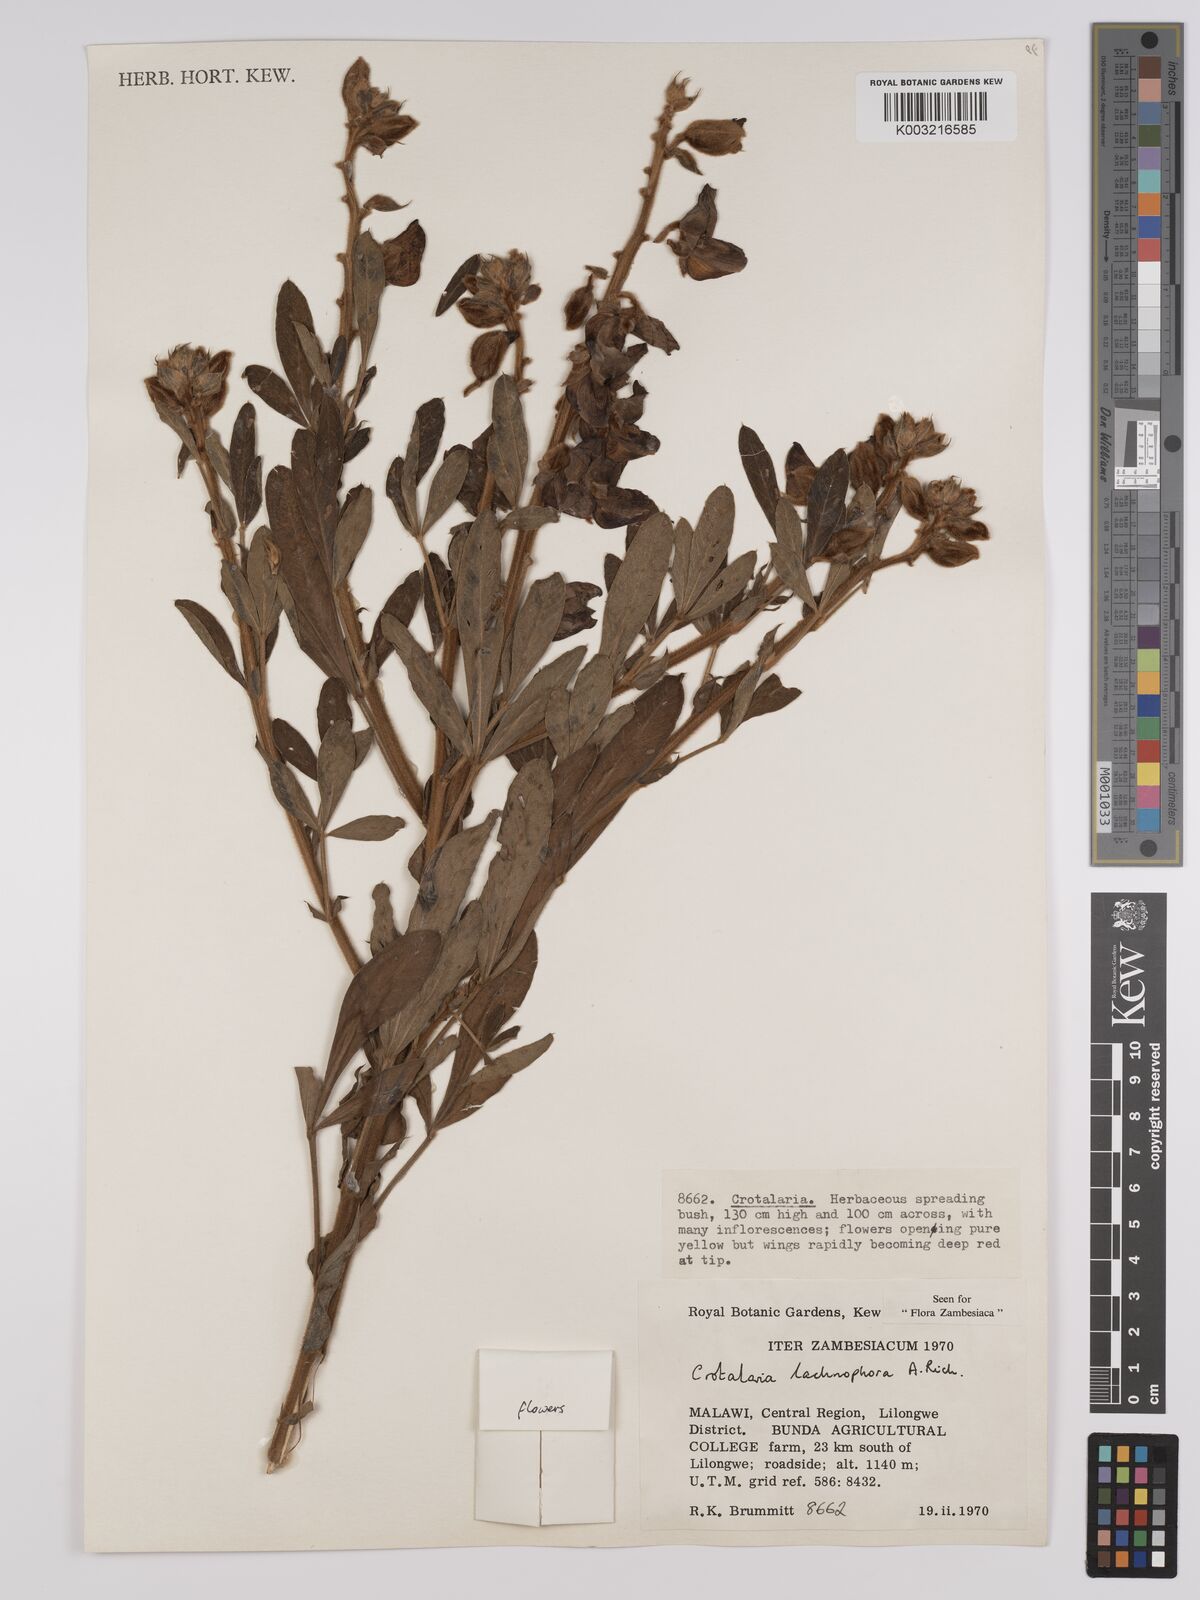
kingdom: Plantae
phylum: Tracheophyta
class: Magnoliopsida
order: Fabales
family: Fabaceae
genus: Crotalaria
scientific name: Crotalaria lachnophora
